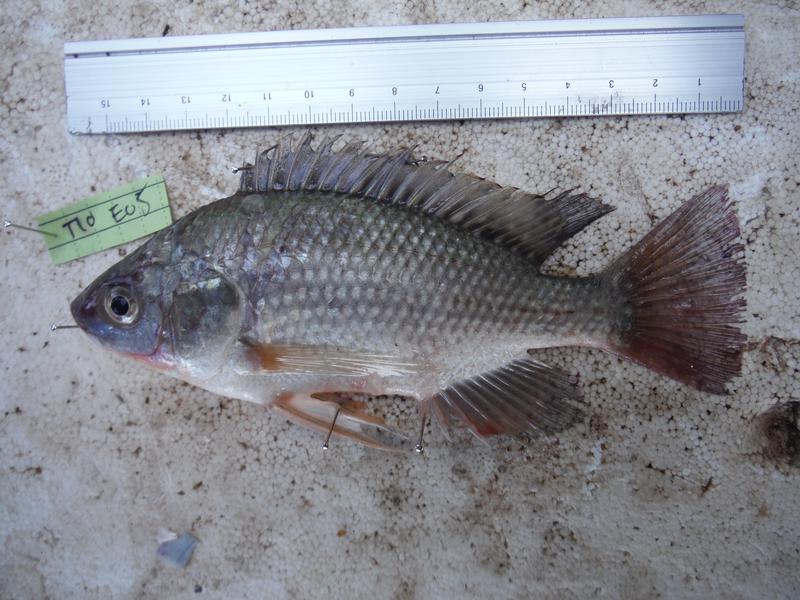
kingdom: Animalia
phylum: Chordata
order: Perciformes
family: Cichlidae
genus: Oreochromis
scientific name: Oreochromis esculentus
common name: Carp
